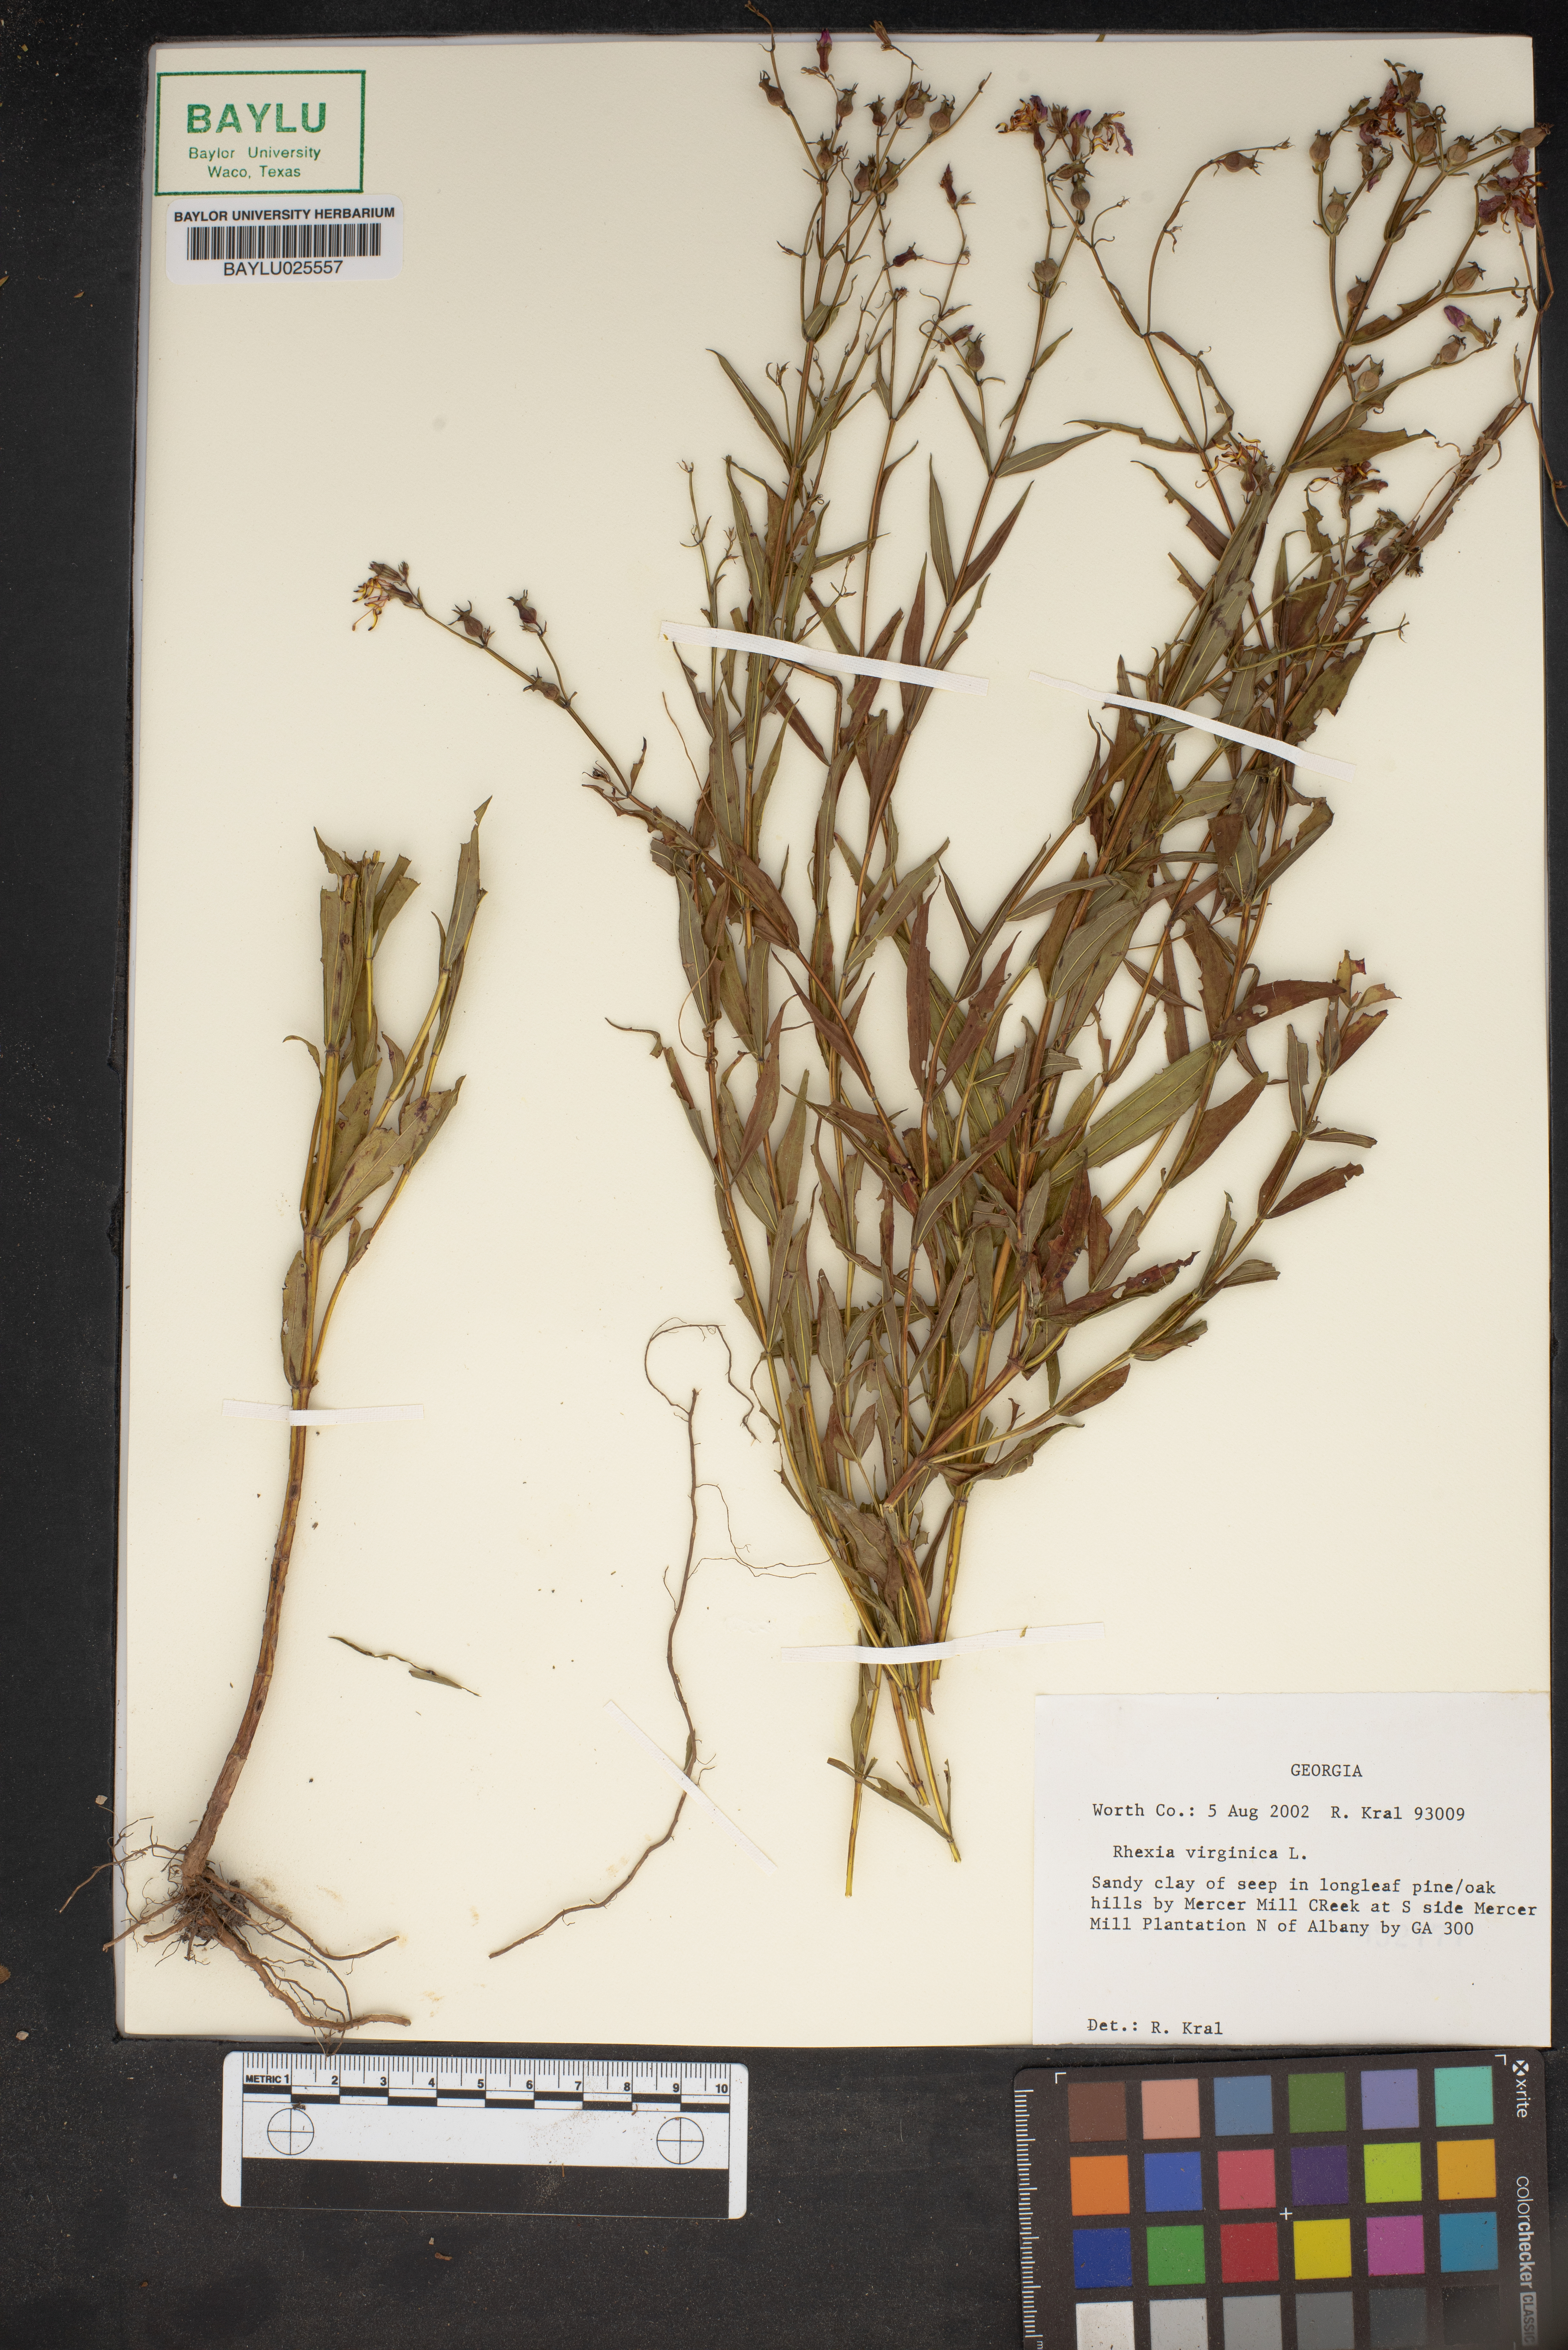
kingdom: Plantae
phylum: Tracheophyta
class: Magnoliopsida
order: Myrtales
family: Melastomataceae
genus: Rhexia
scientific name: Rhexia virginica
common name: Common meadow beauty
